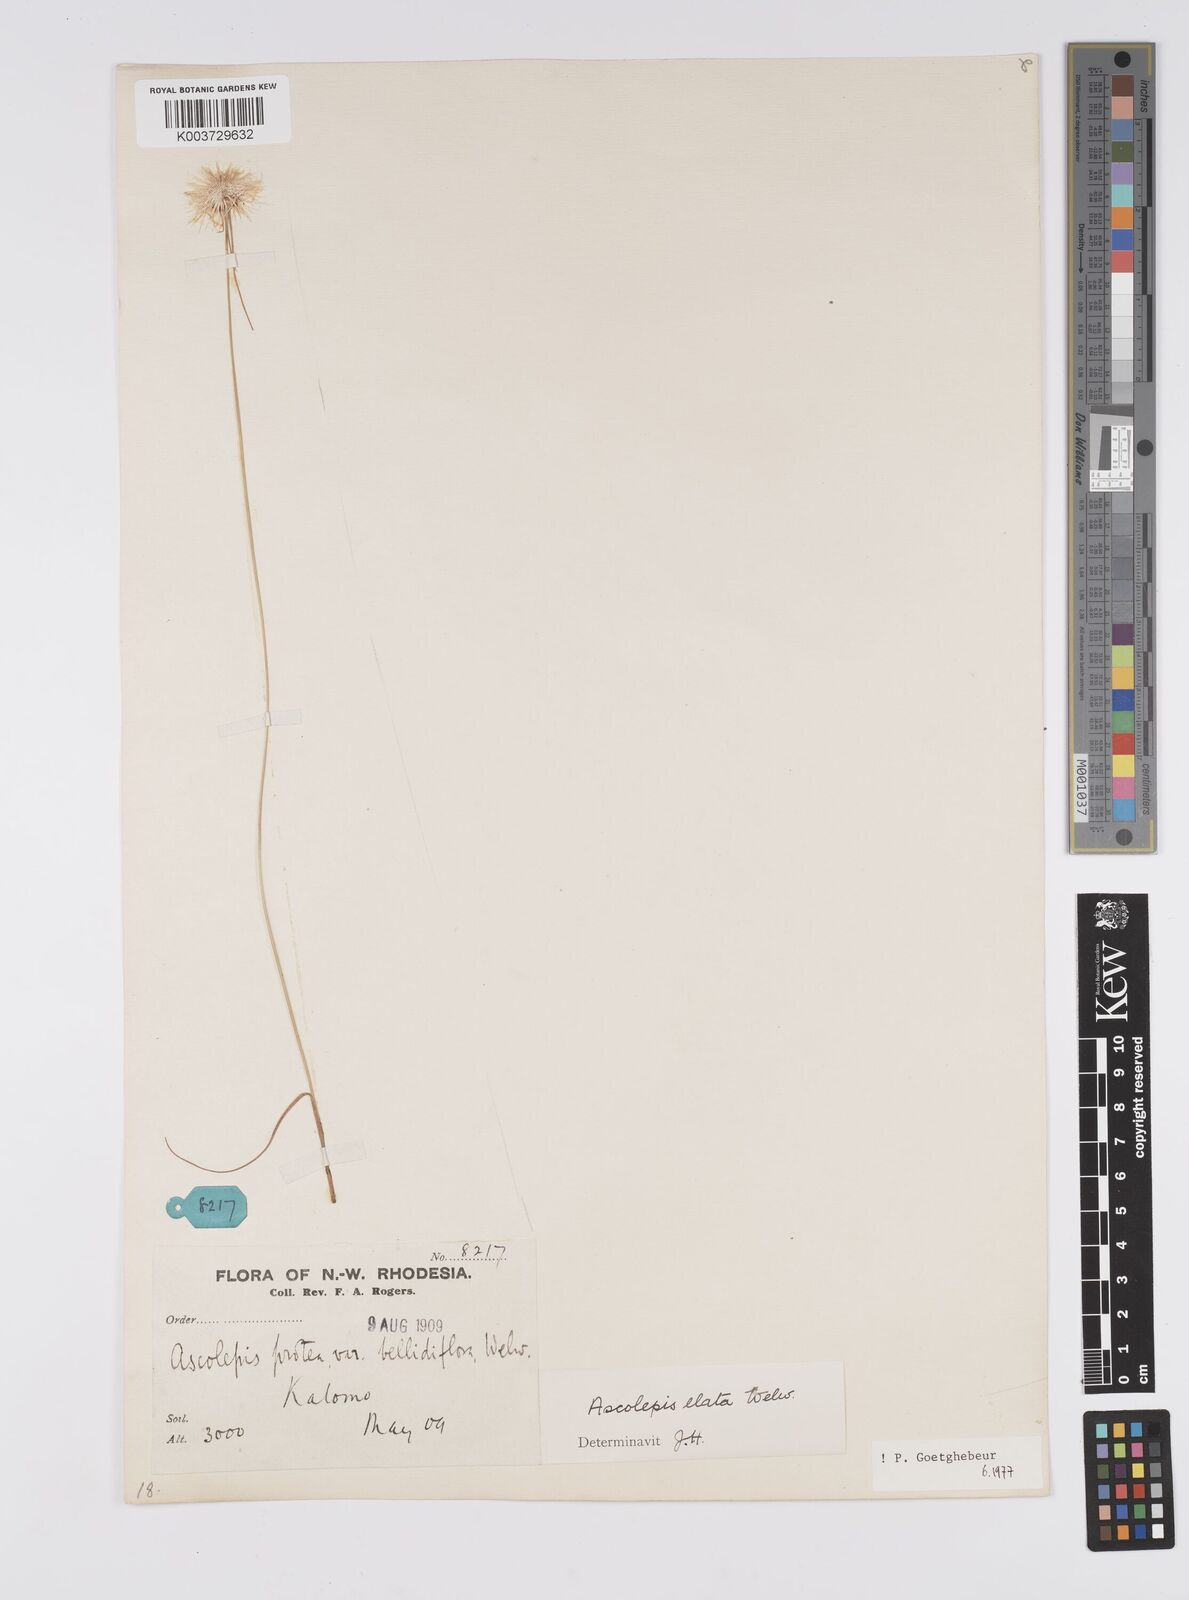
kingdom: Plantae
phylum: Tracheophyta
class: Liliopsida
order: Poales
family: Cyperaceae
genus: Cyperus
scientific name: Cyperus
